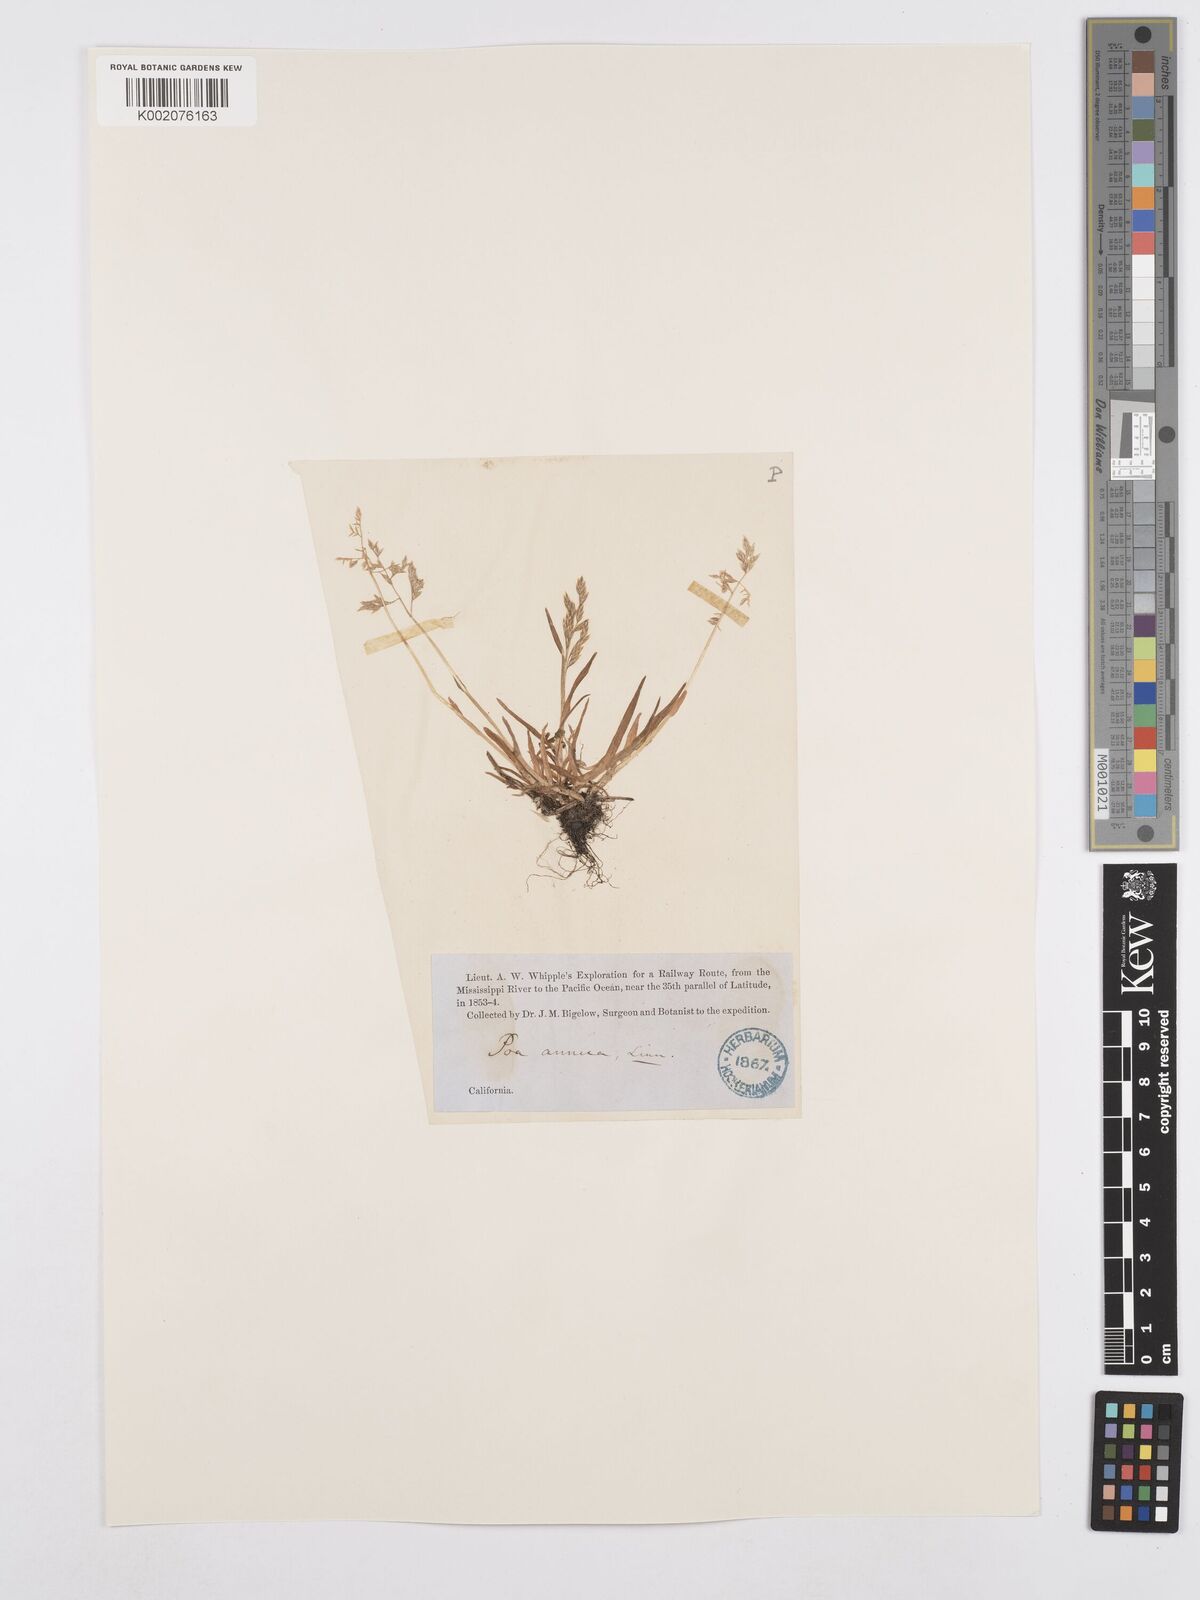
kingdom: Plantae
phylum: Tracheophyta
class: Liliopsida
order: Poales
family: Poaceae
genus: Poa
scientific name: Poa annua
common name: Annual bluegrass
